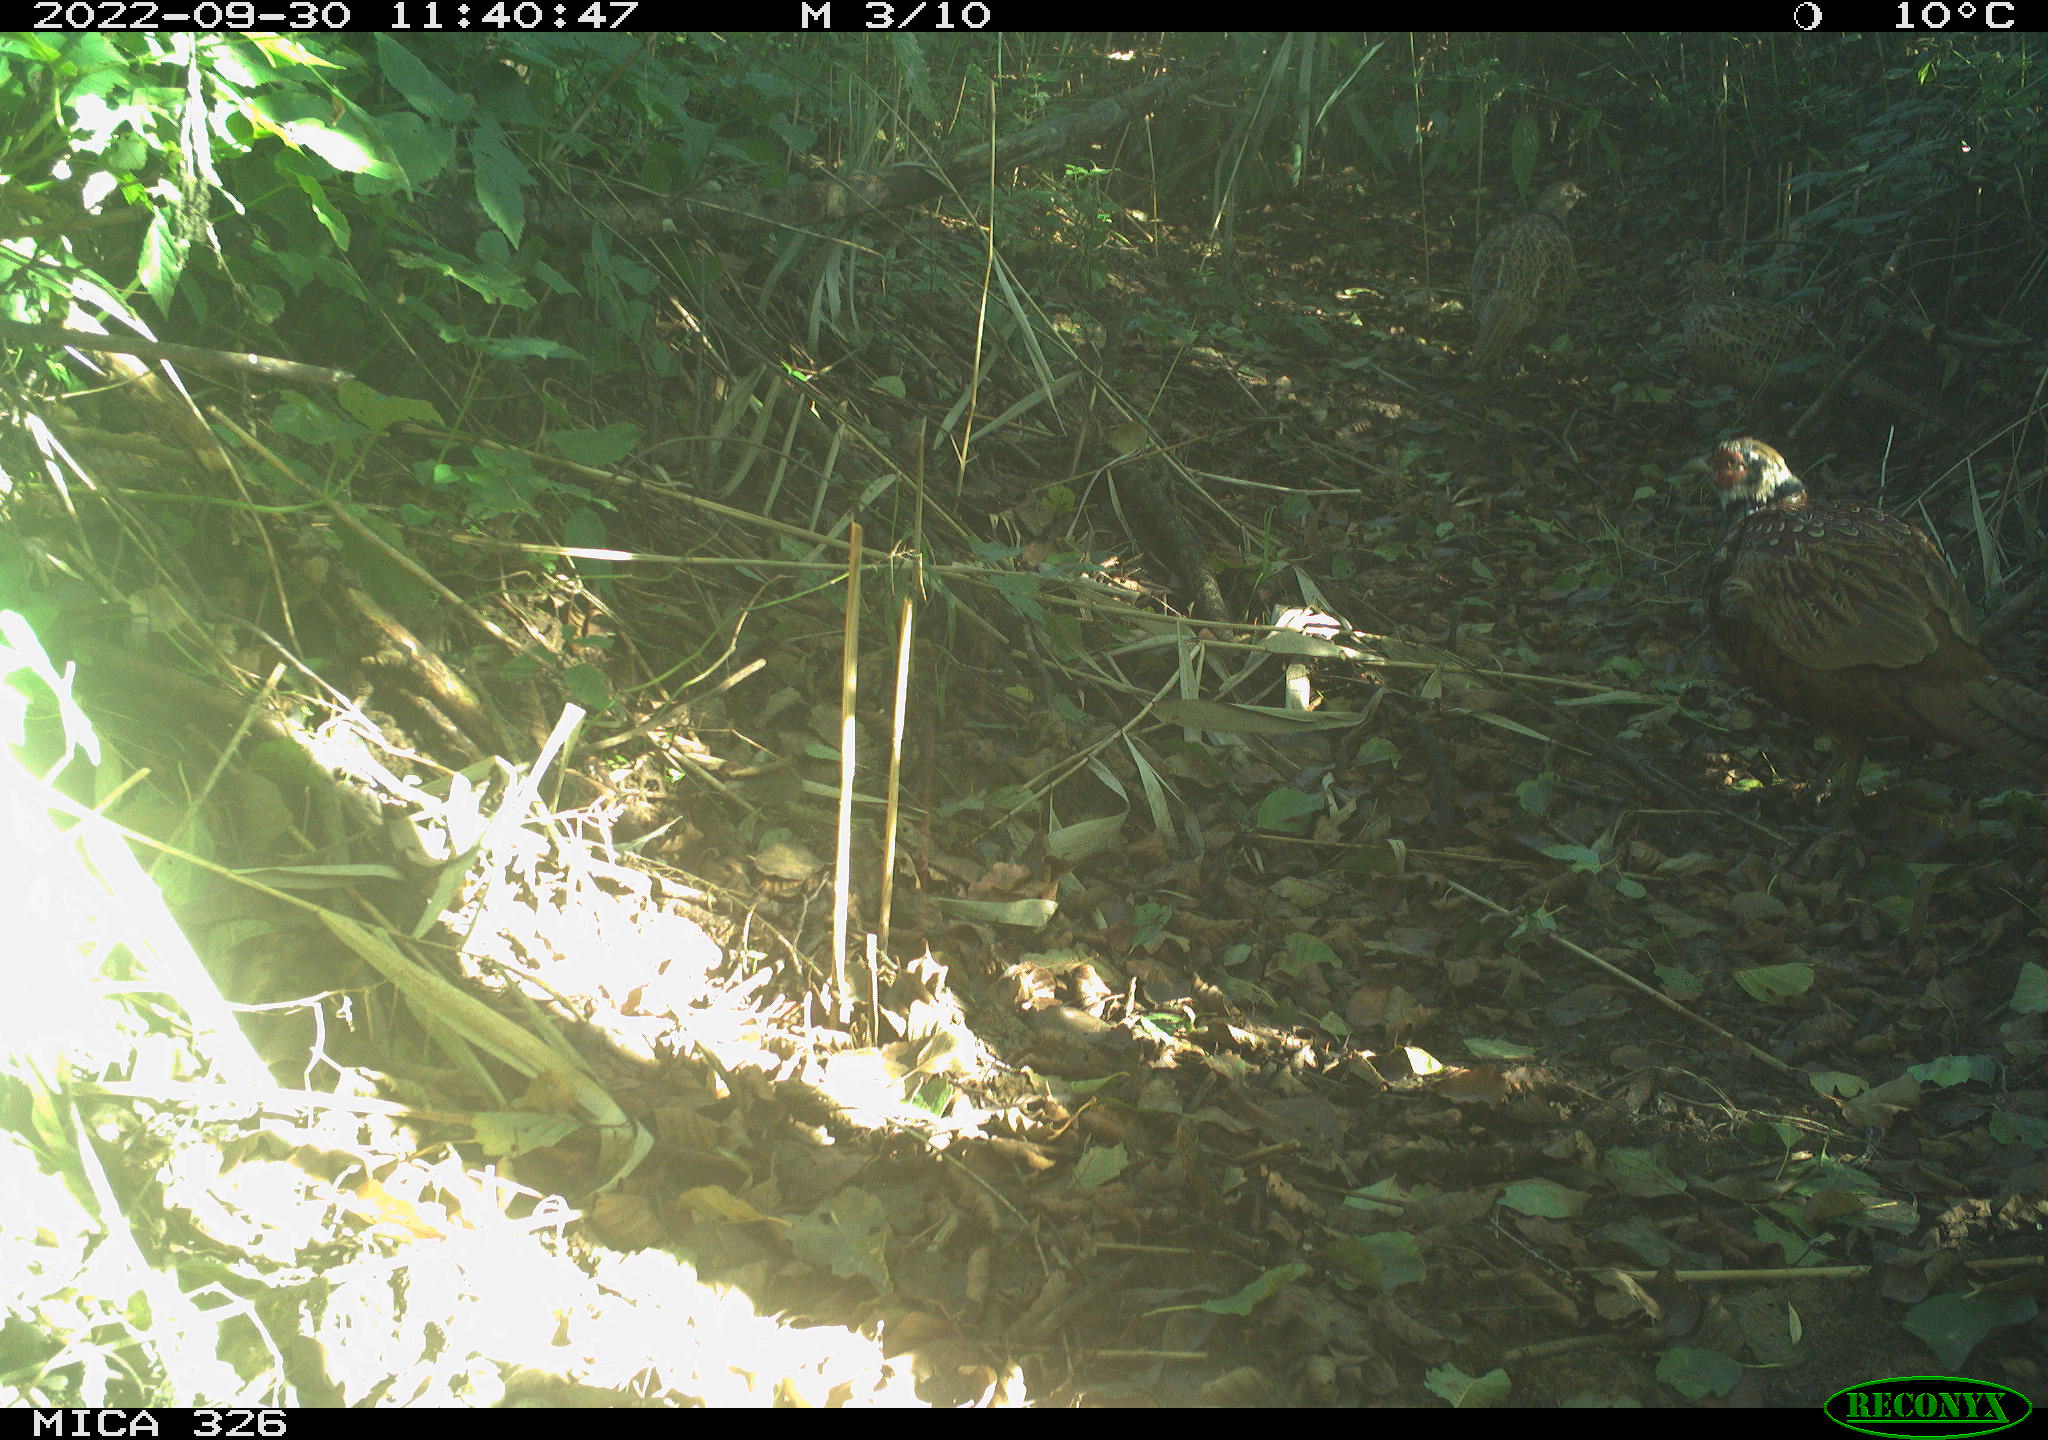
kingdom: Animalia
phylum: Chordata
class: Aves
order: Galliformes
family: Phasianidae
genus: Phasianus
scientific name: Phasianus colchicus
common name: Common pheasant
